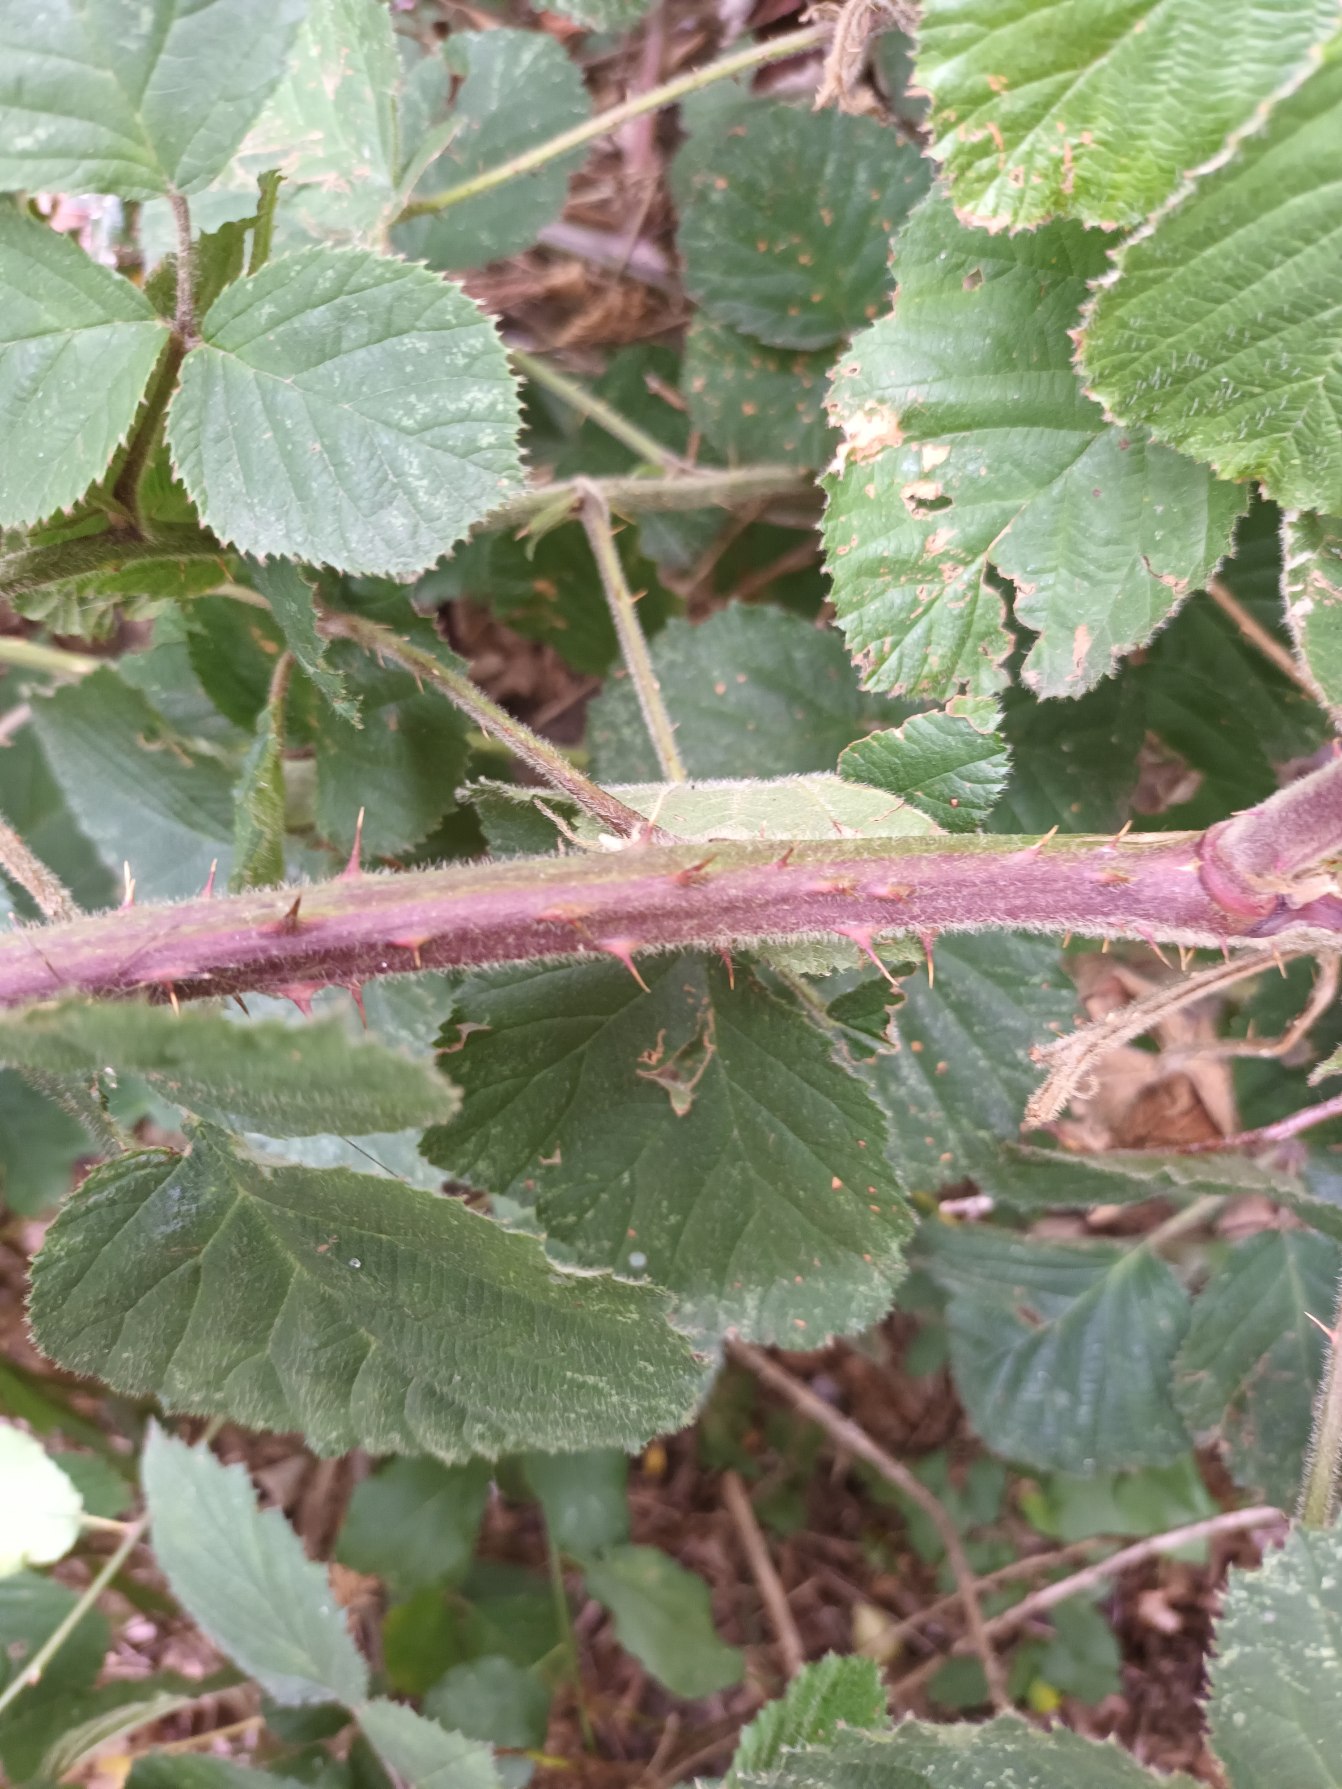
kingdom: Plantae
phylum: Tracheophyta
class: Magnoliopsida
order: Rosales
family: Rosaceae
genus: Rubus
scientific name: Rubus vestitus
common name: Rundbladet brombær
